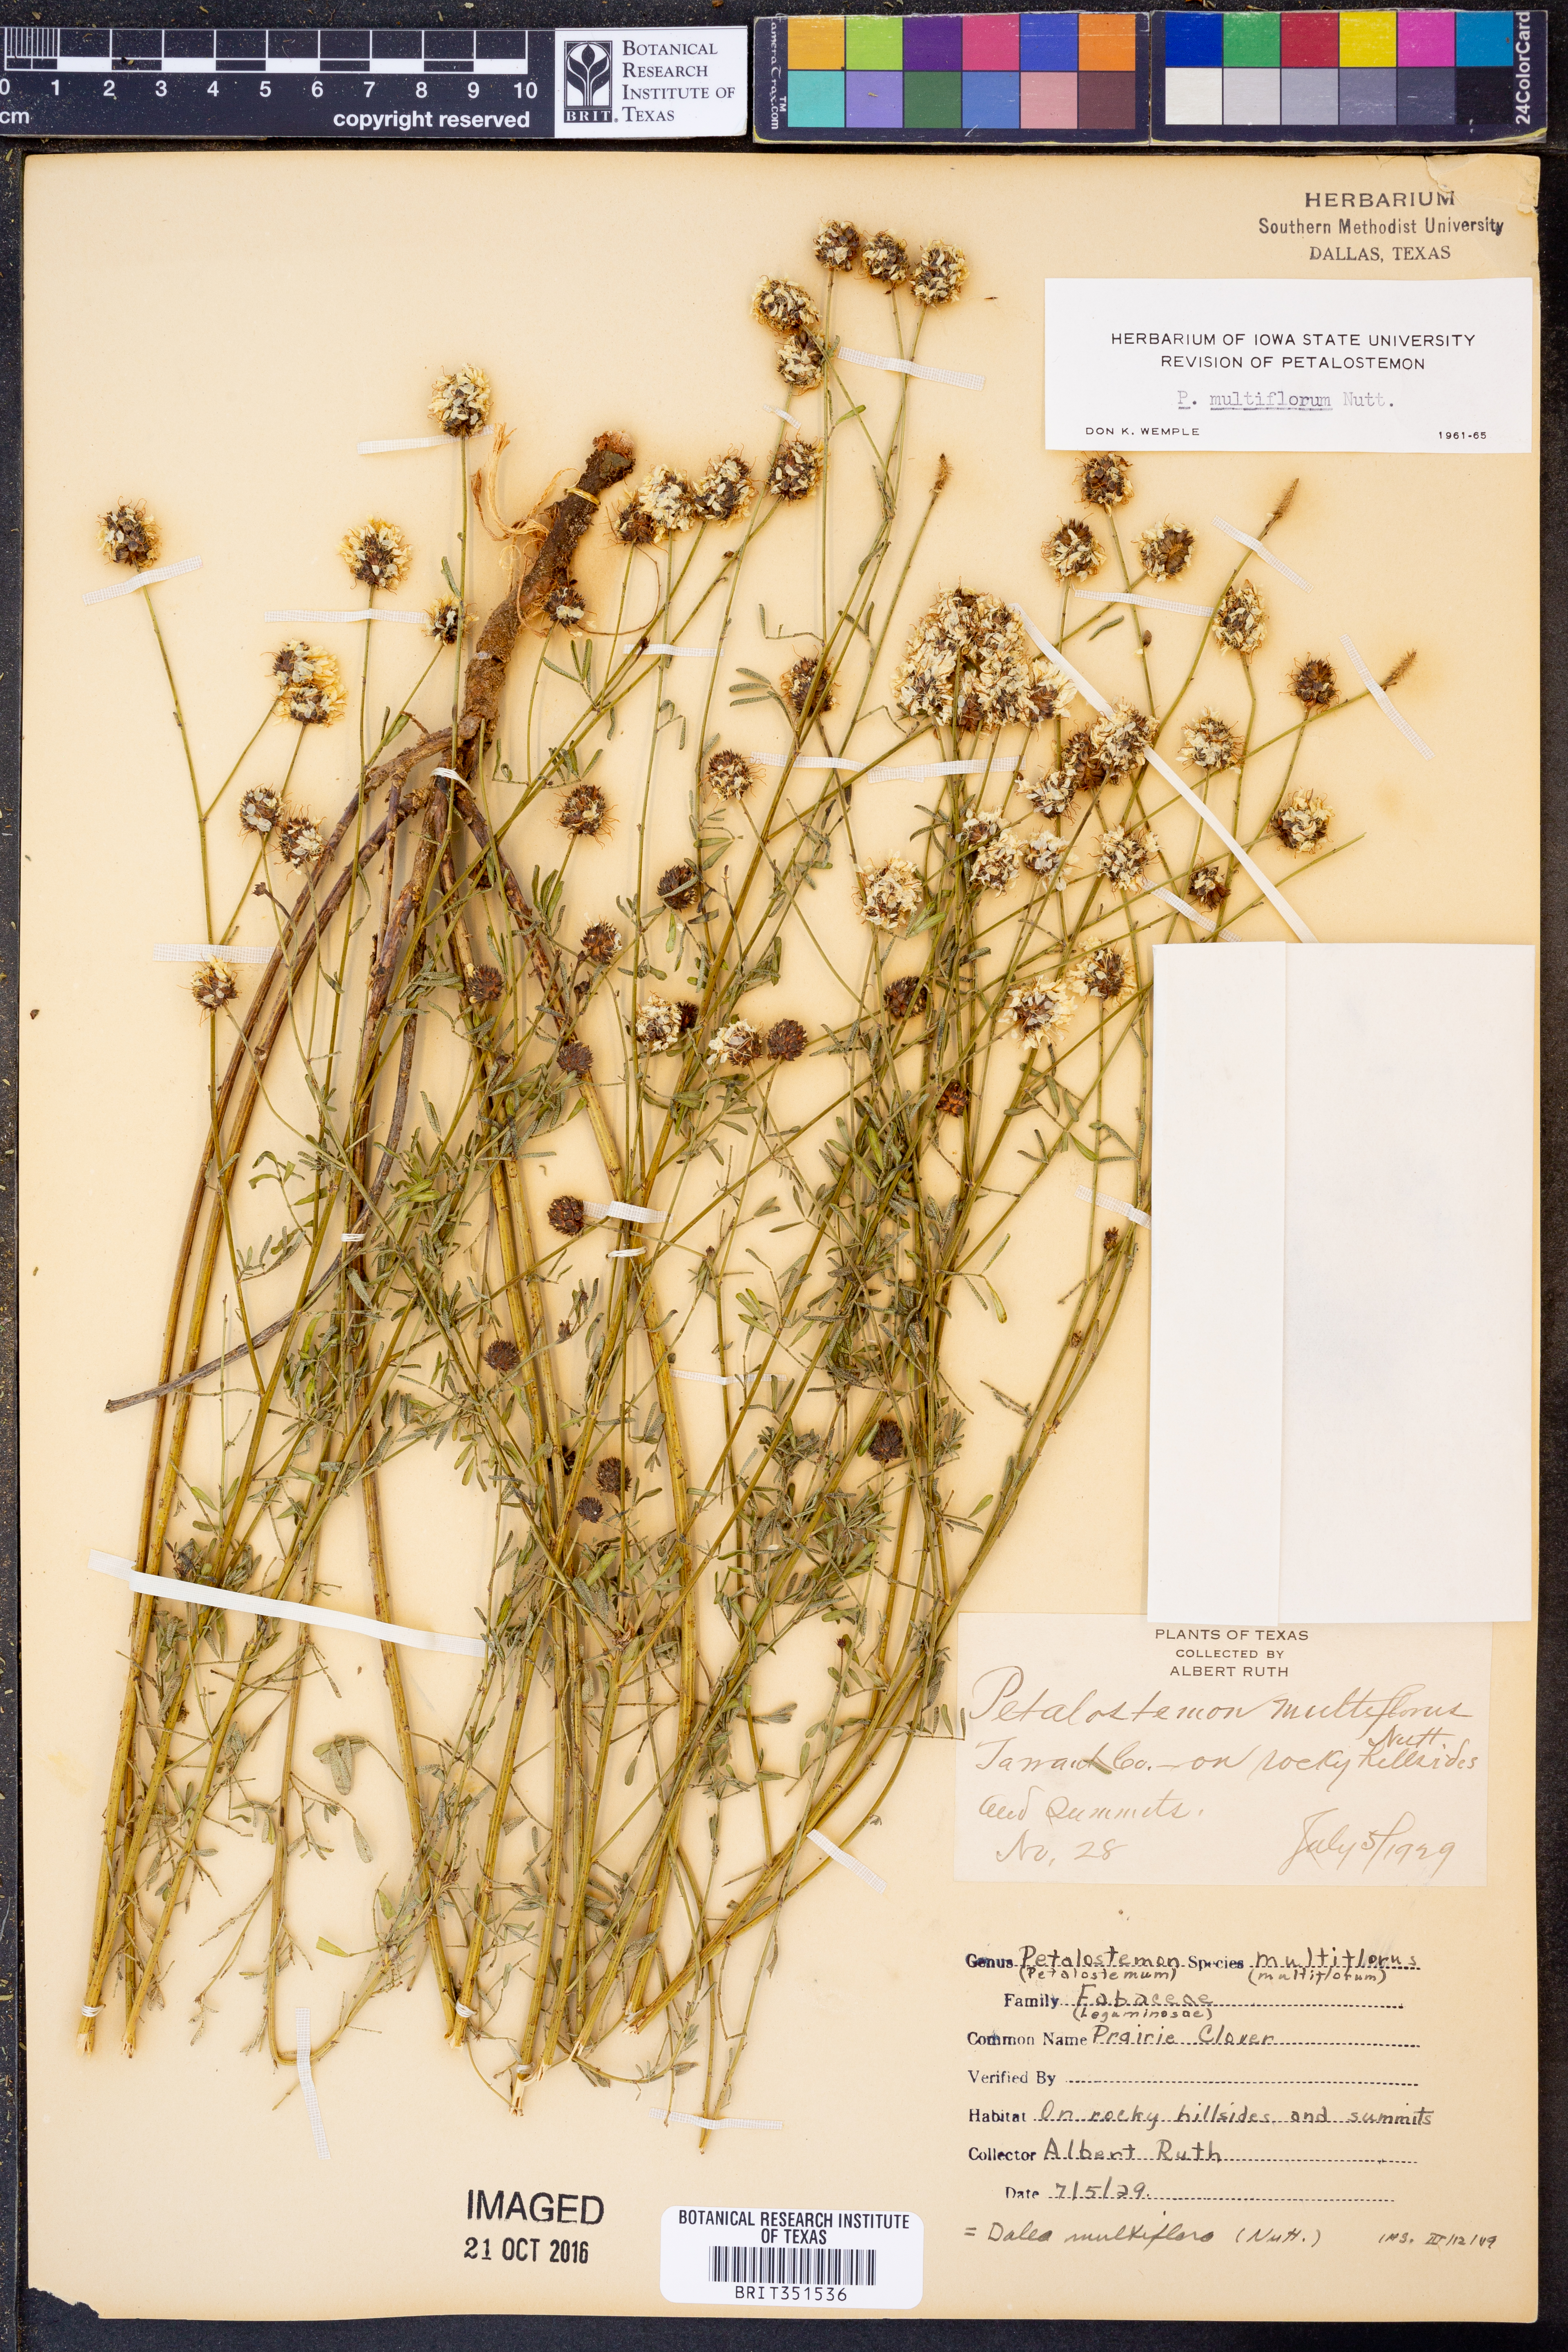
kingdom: Plantae
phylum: Tracheophyta
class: Magnoliopsida
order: Fabales
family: Fabaceae
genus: Dalea
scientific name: Dalea
